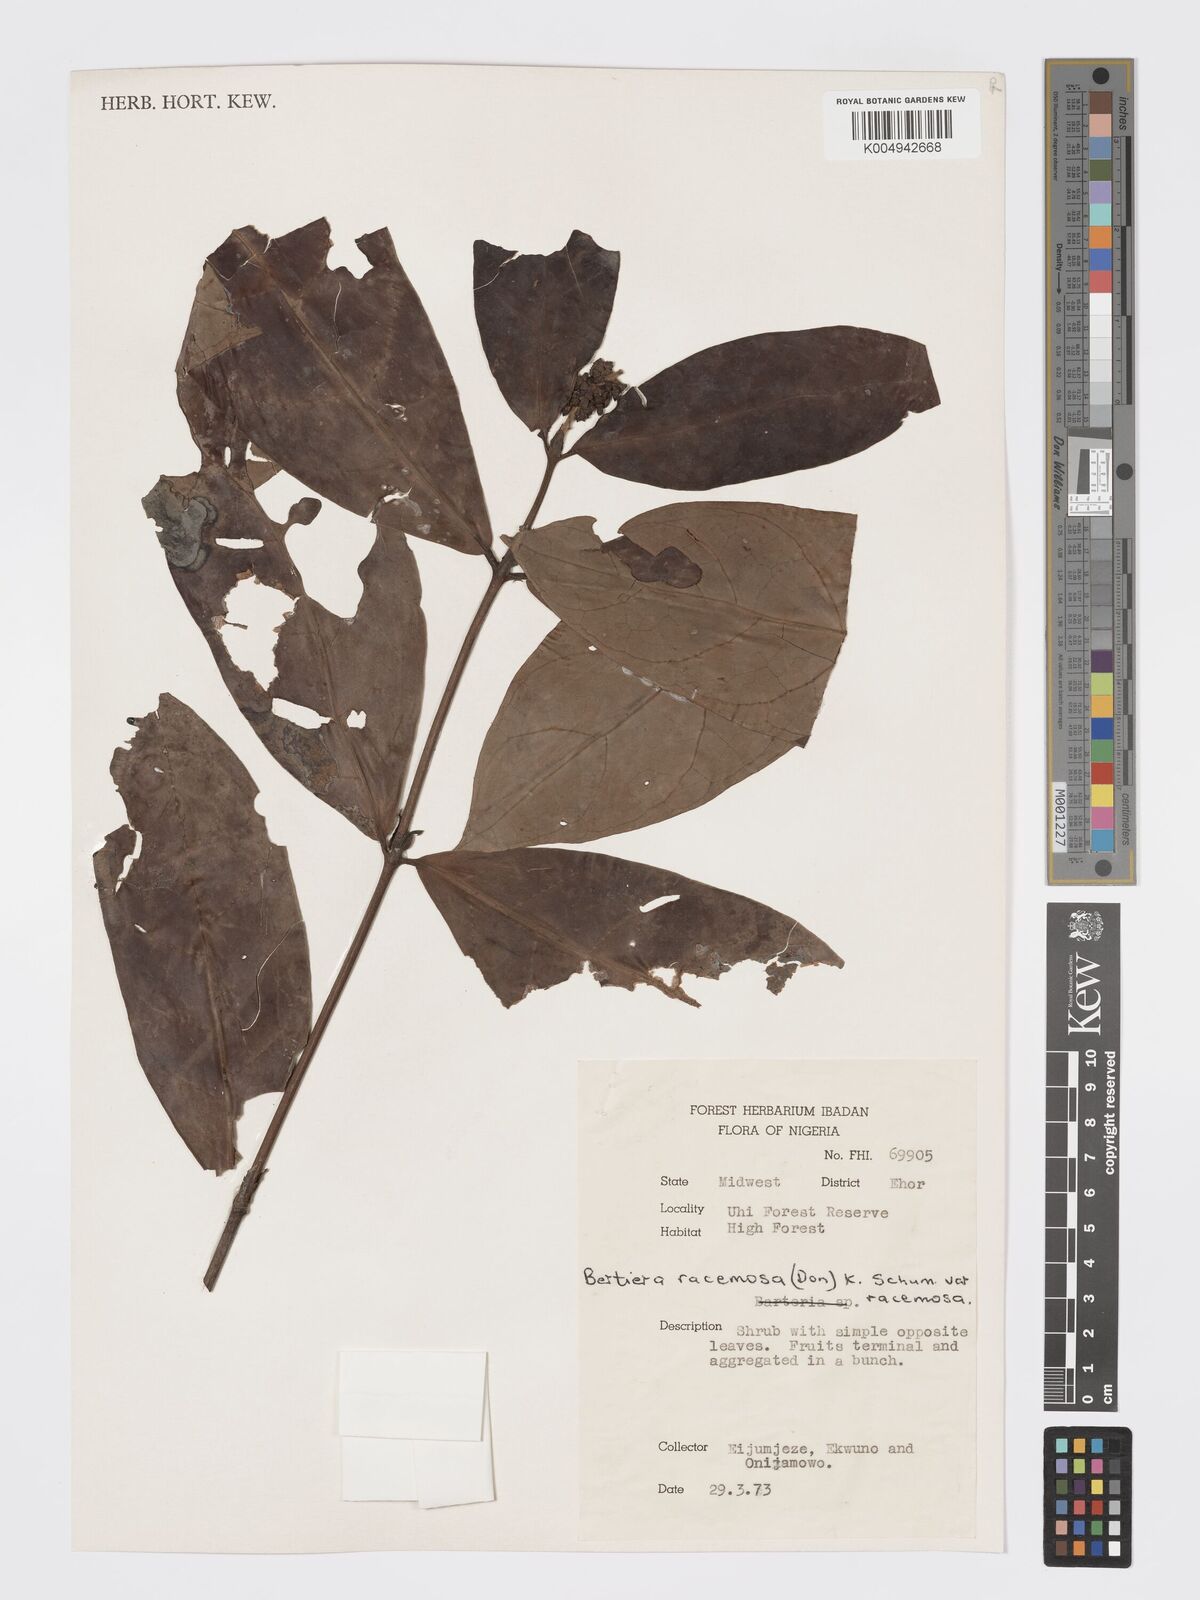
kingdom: Plantae
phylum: Tracheophyta
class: Magnoliopsida
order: Gentianales
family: Rubiaceae
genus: Bertiera
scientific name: Bertiera racemosa
